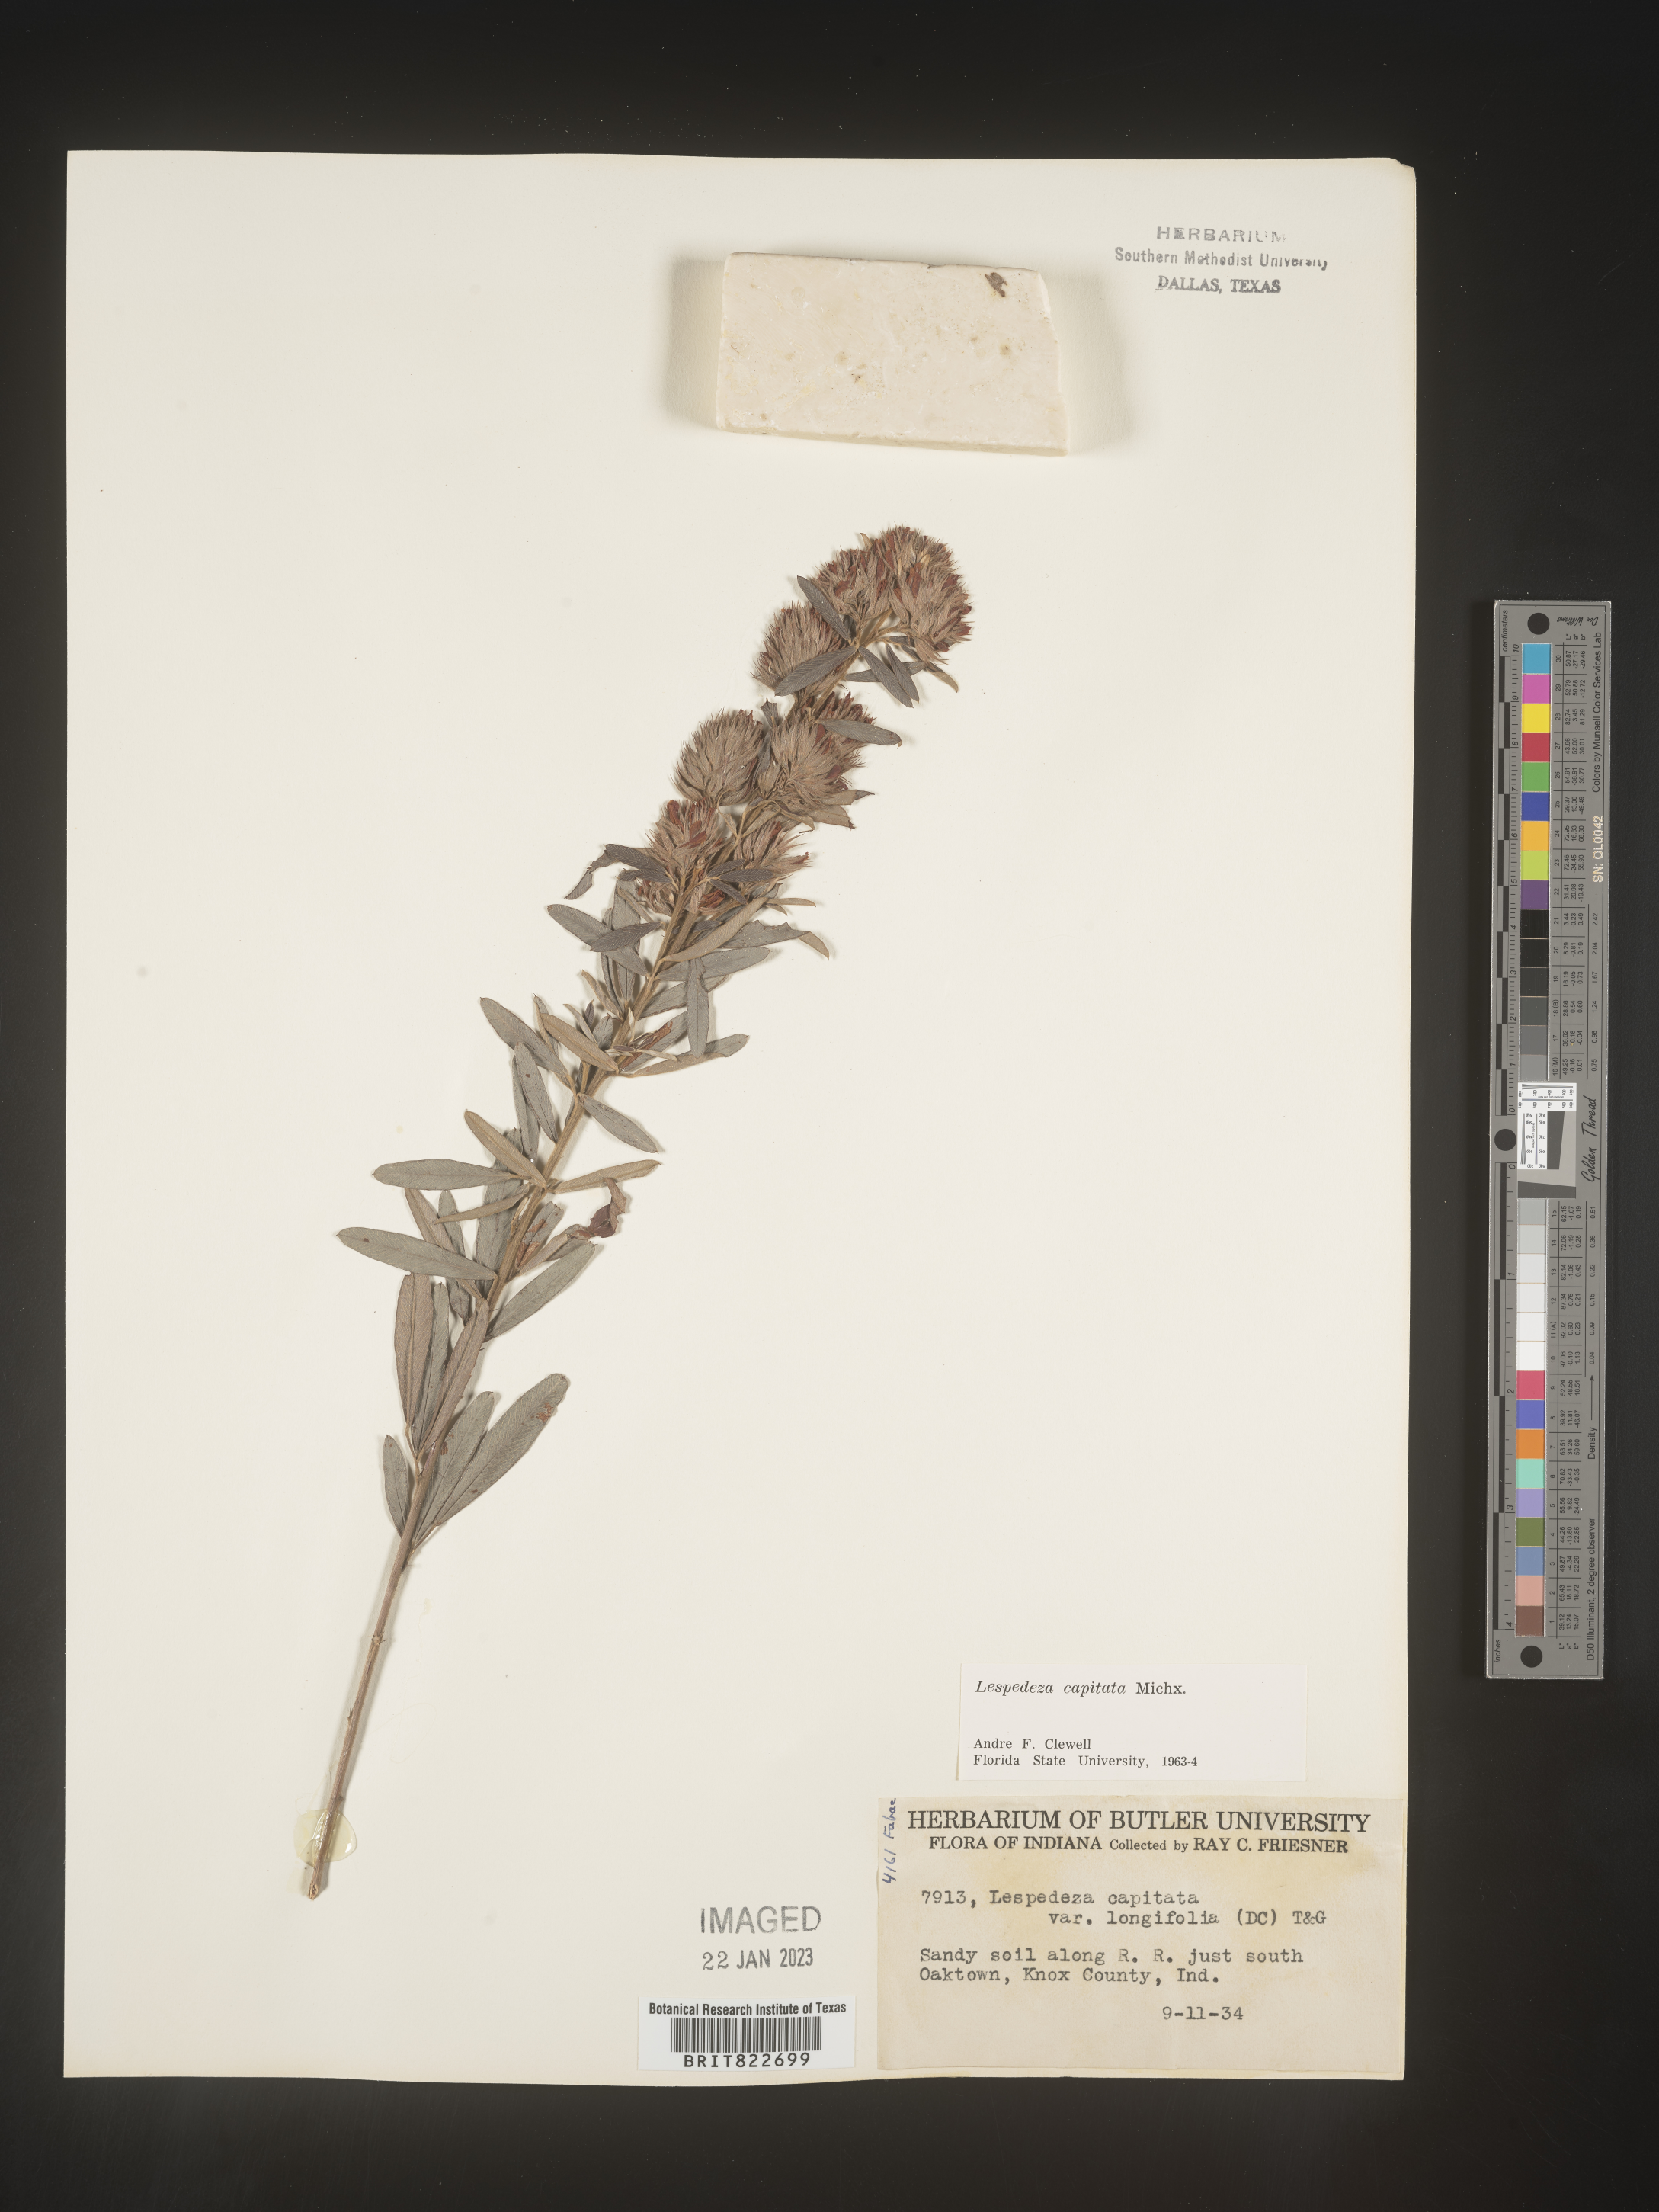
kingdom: Plantae
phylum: Tracheophyta
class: Magnoliopsida
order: Fabales
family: Fabaceae
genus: Lespedeza
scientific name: Lespedeza capitata
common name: Dusty clover
